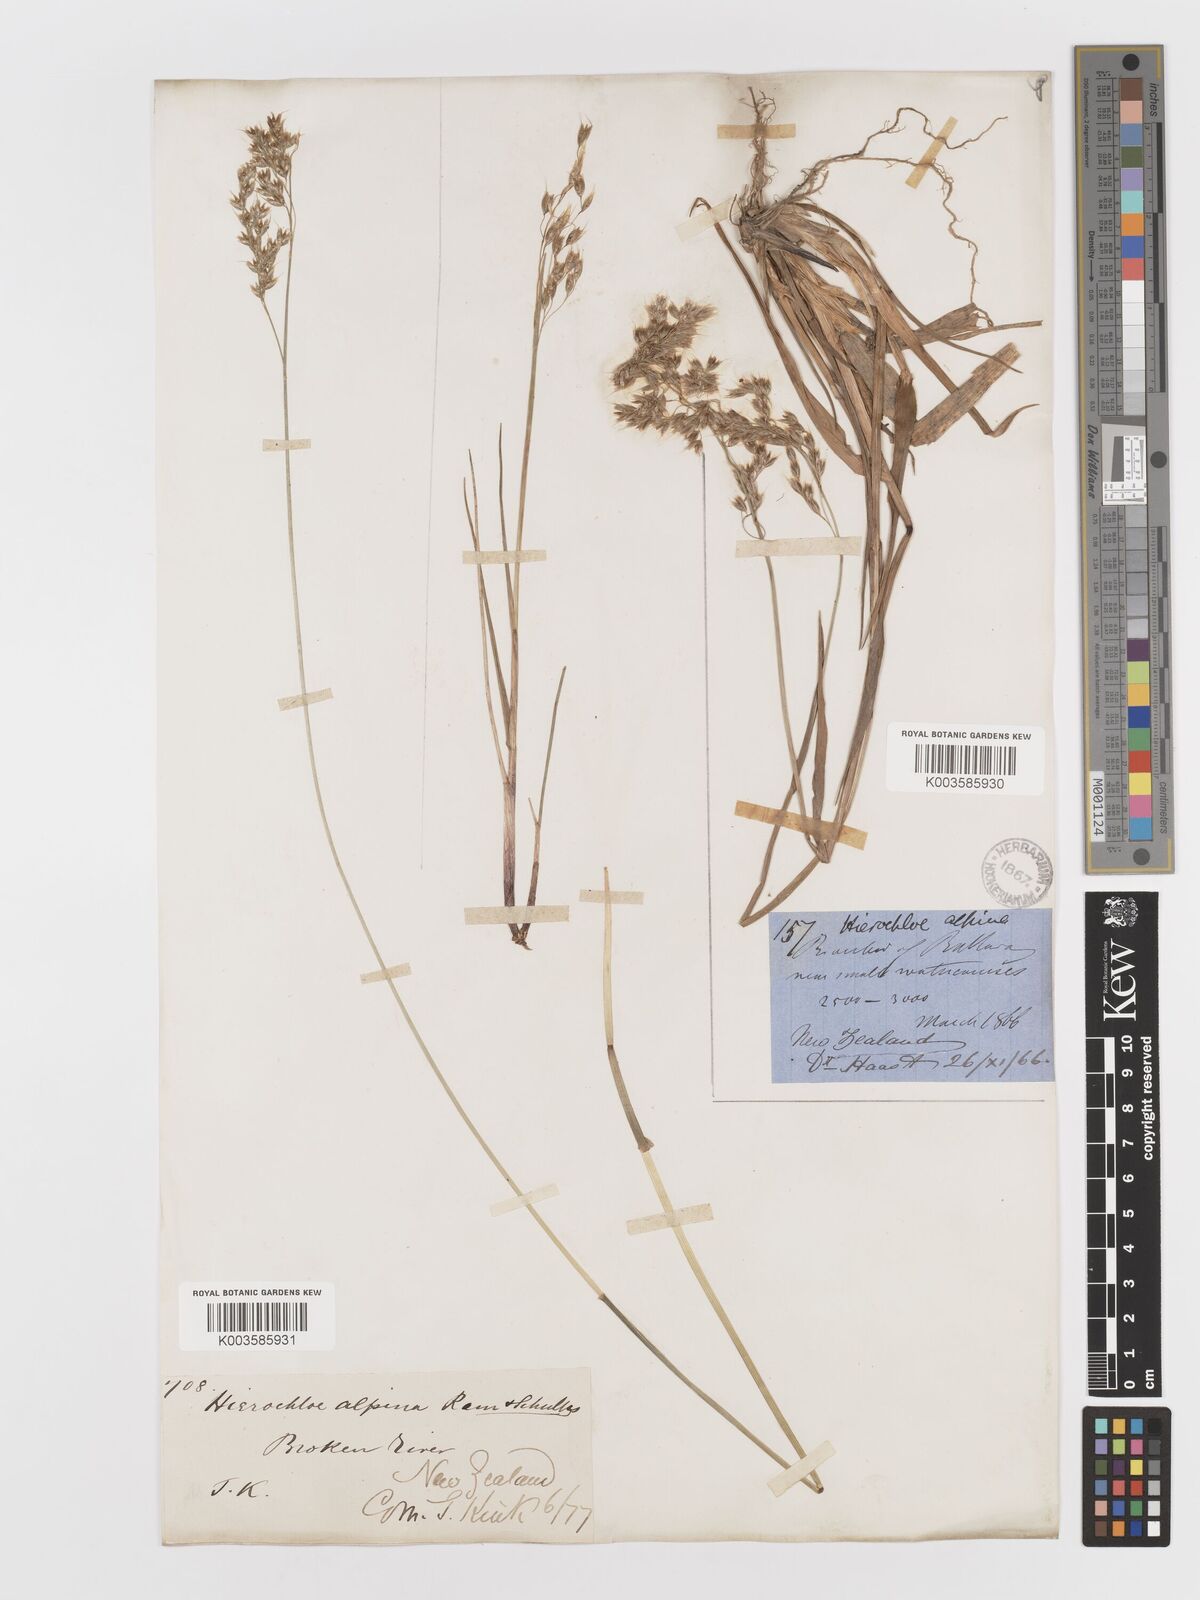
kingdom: Plantae
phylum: Tracheophyta
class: Liliopsida
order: Poales
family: Poaceae
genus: Anthoxanthum
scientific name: Anthoxanthum novae-zelandiae
